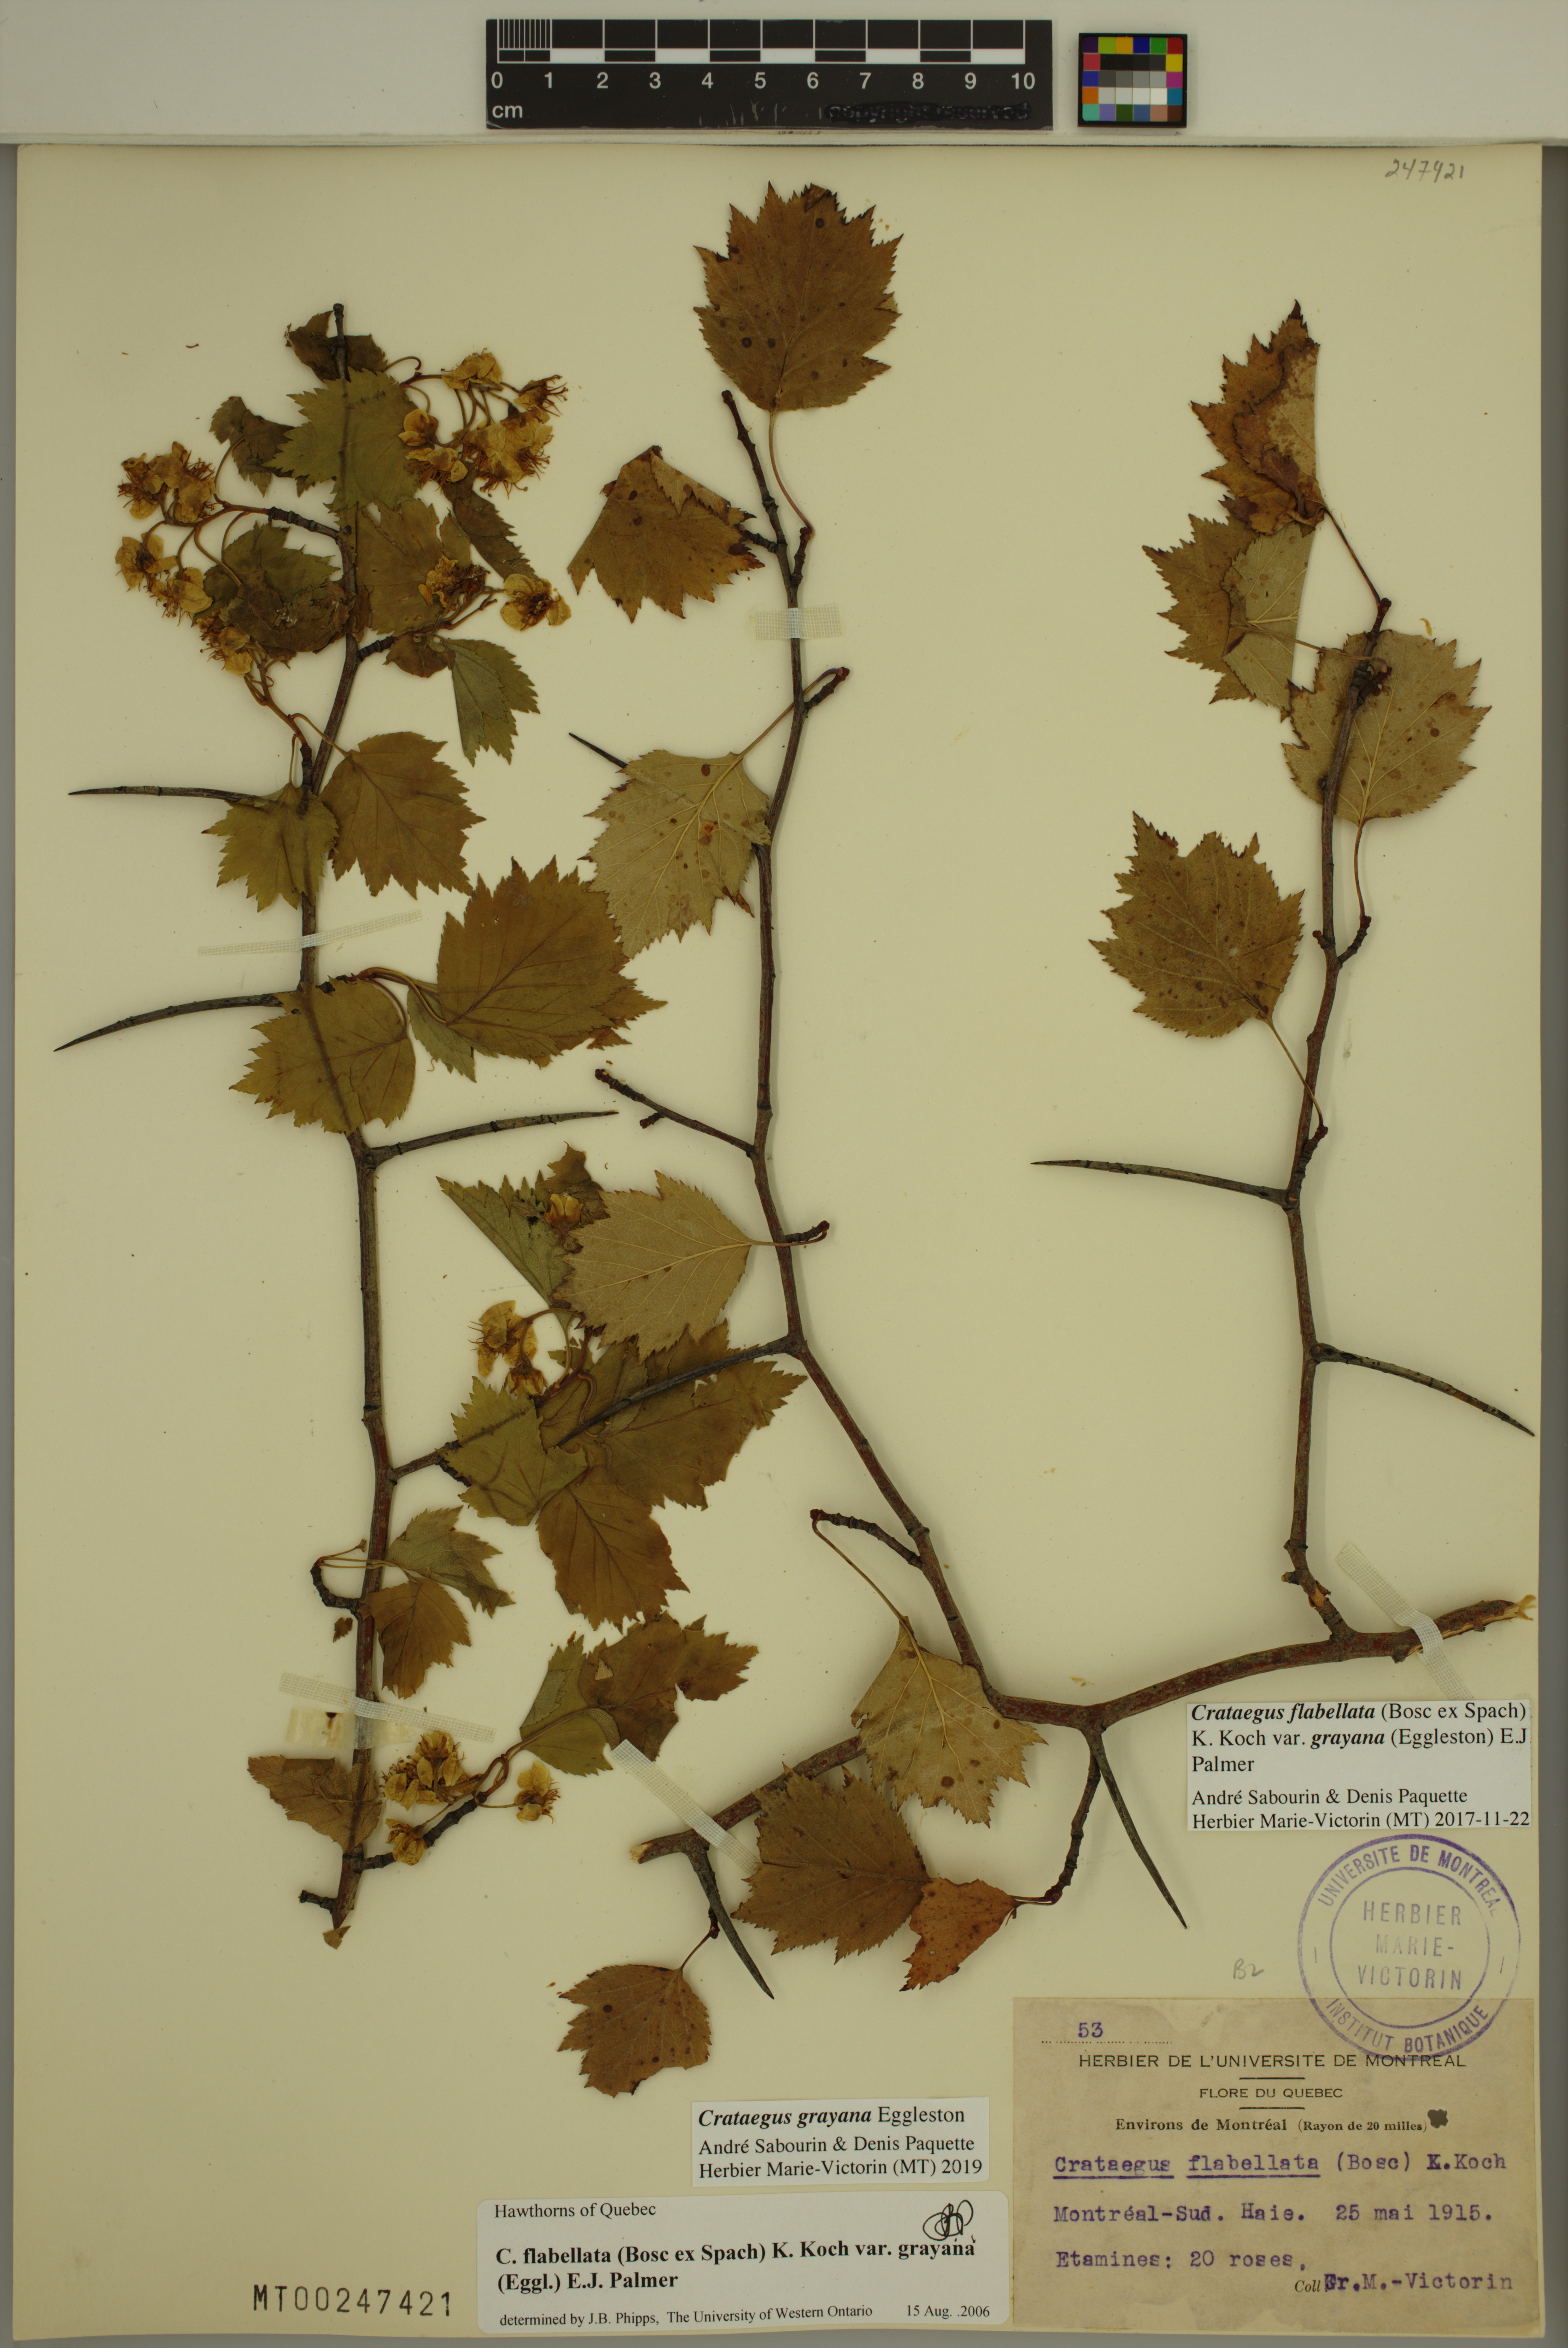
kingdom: Plantae
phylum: Tracheophyta
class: Magnoliopsida
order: Rosales
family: Rosaceae
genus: Crataegus
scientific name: Crataegus schuettei
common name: Schuette's hawthorn
